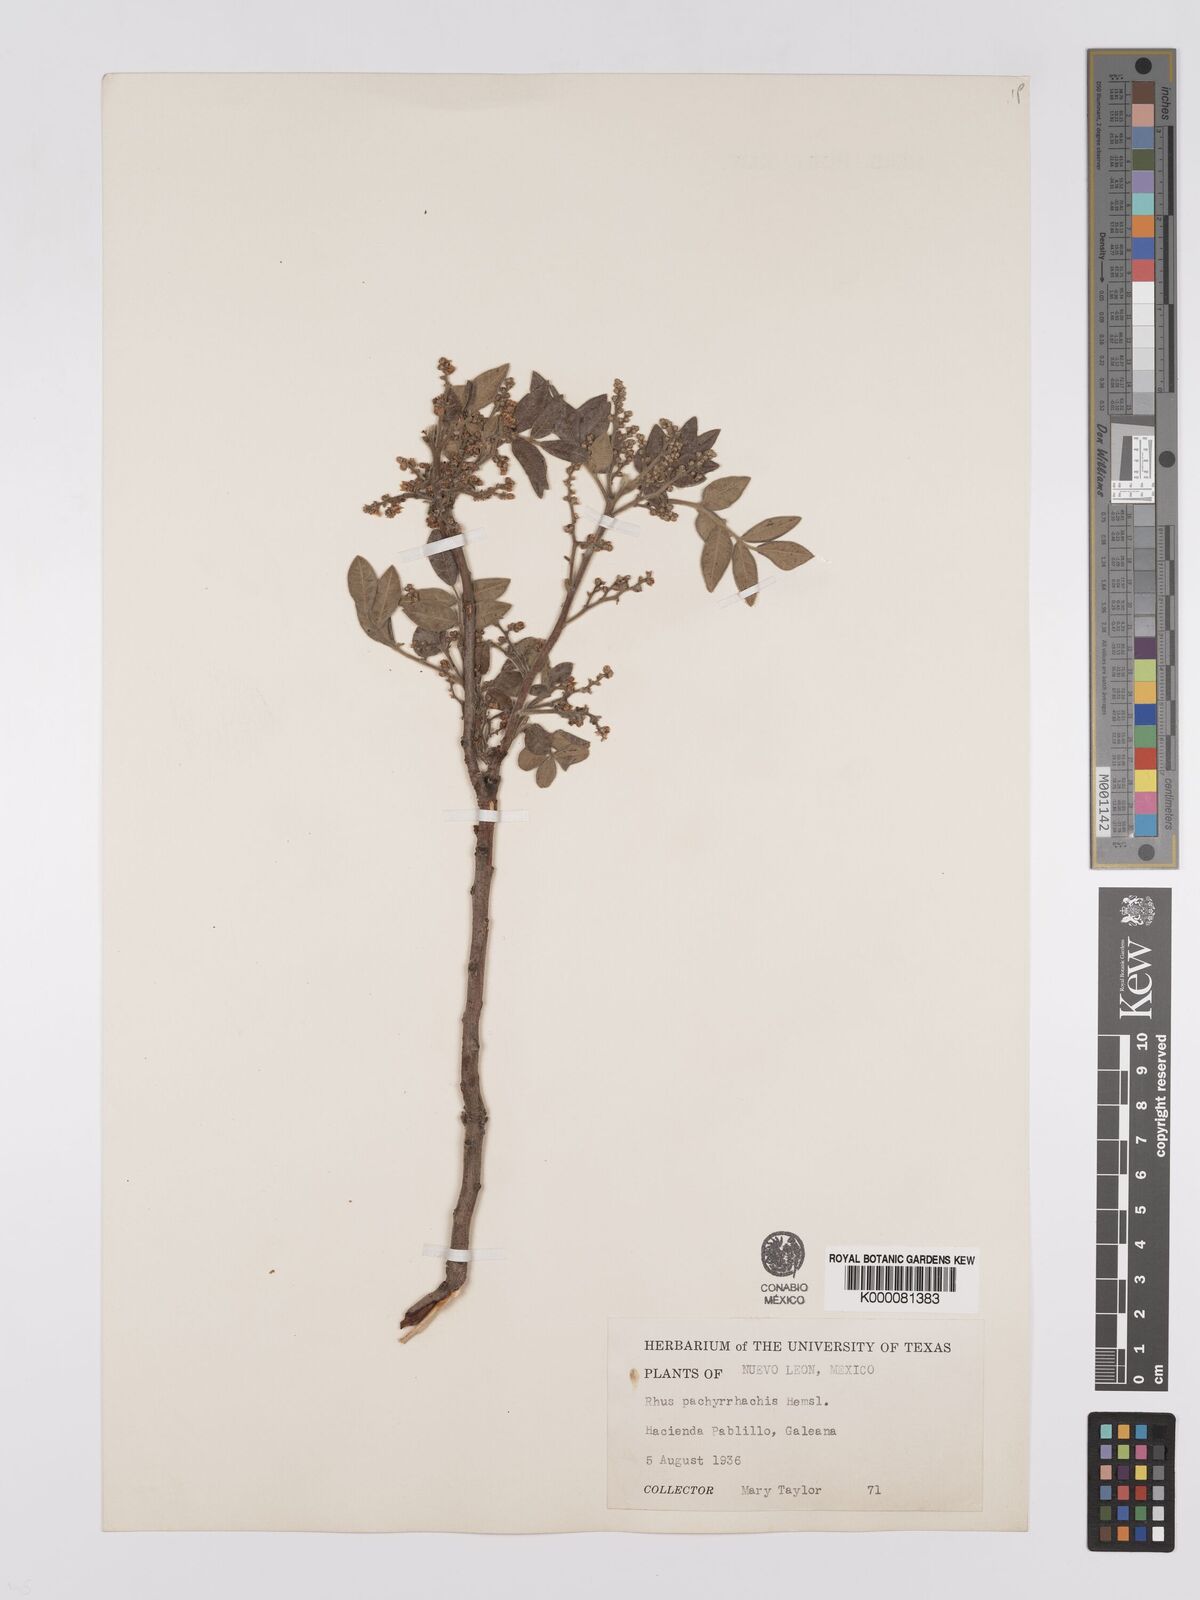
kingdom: Plantae
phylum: Tracheophyta
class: Magnoliopsida
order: Sapindales
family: Anacardiaceae
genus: Rhus
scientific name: Rhus pachyrrhachis
